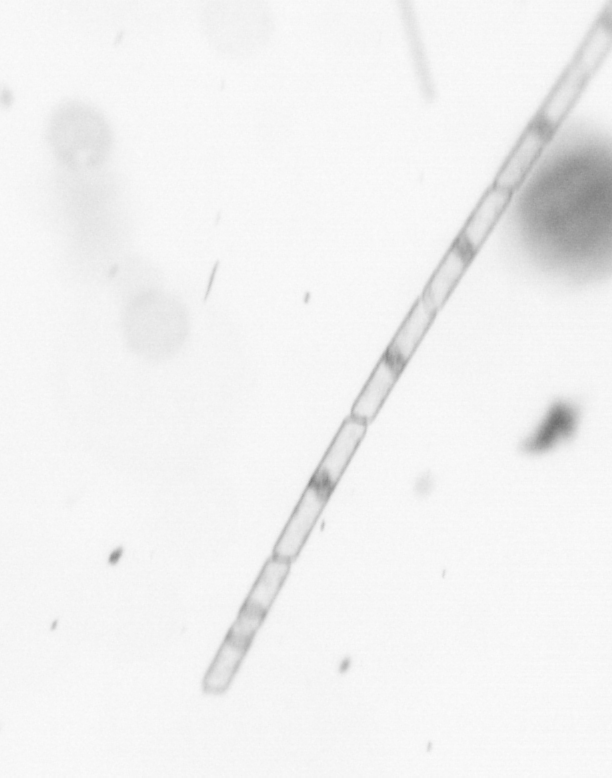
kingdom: Chromista
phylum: Ochrophyta
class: Bacillariophyceae
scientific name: Bacillariophyceae
